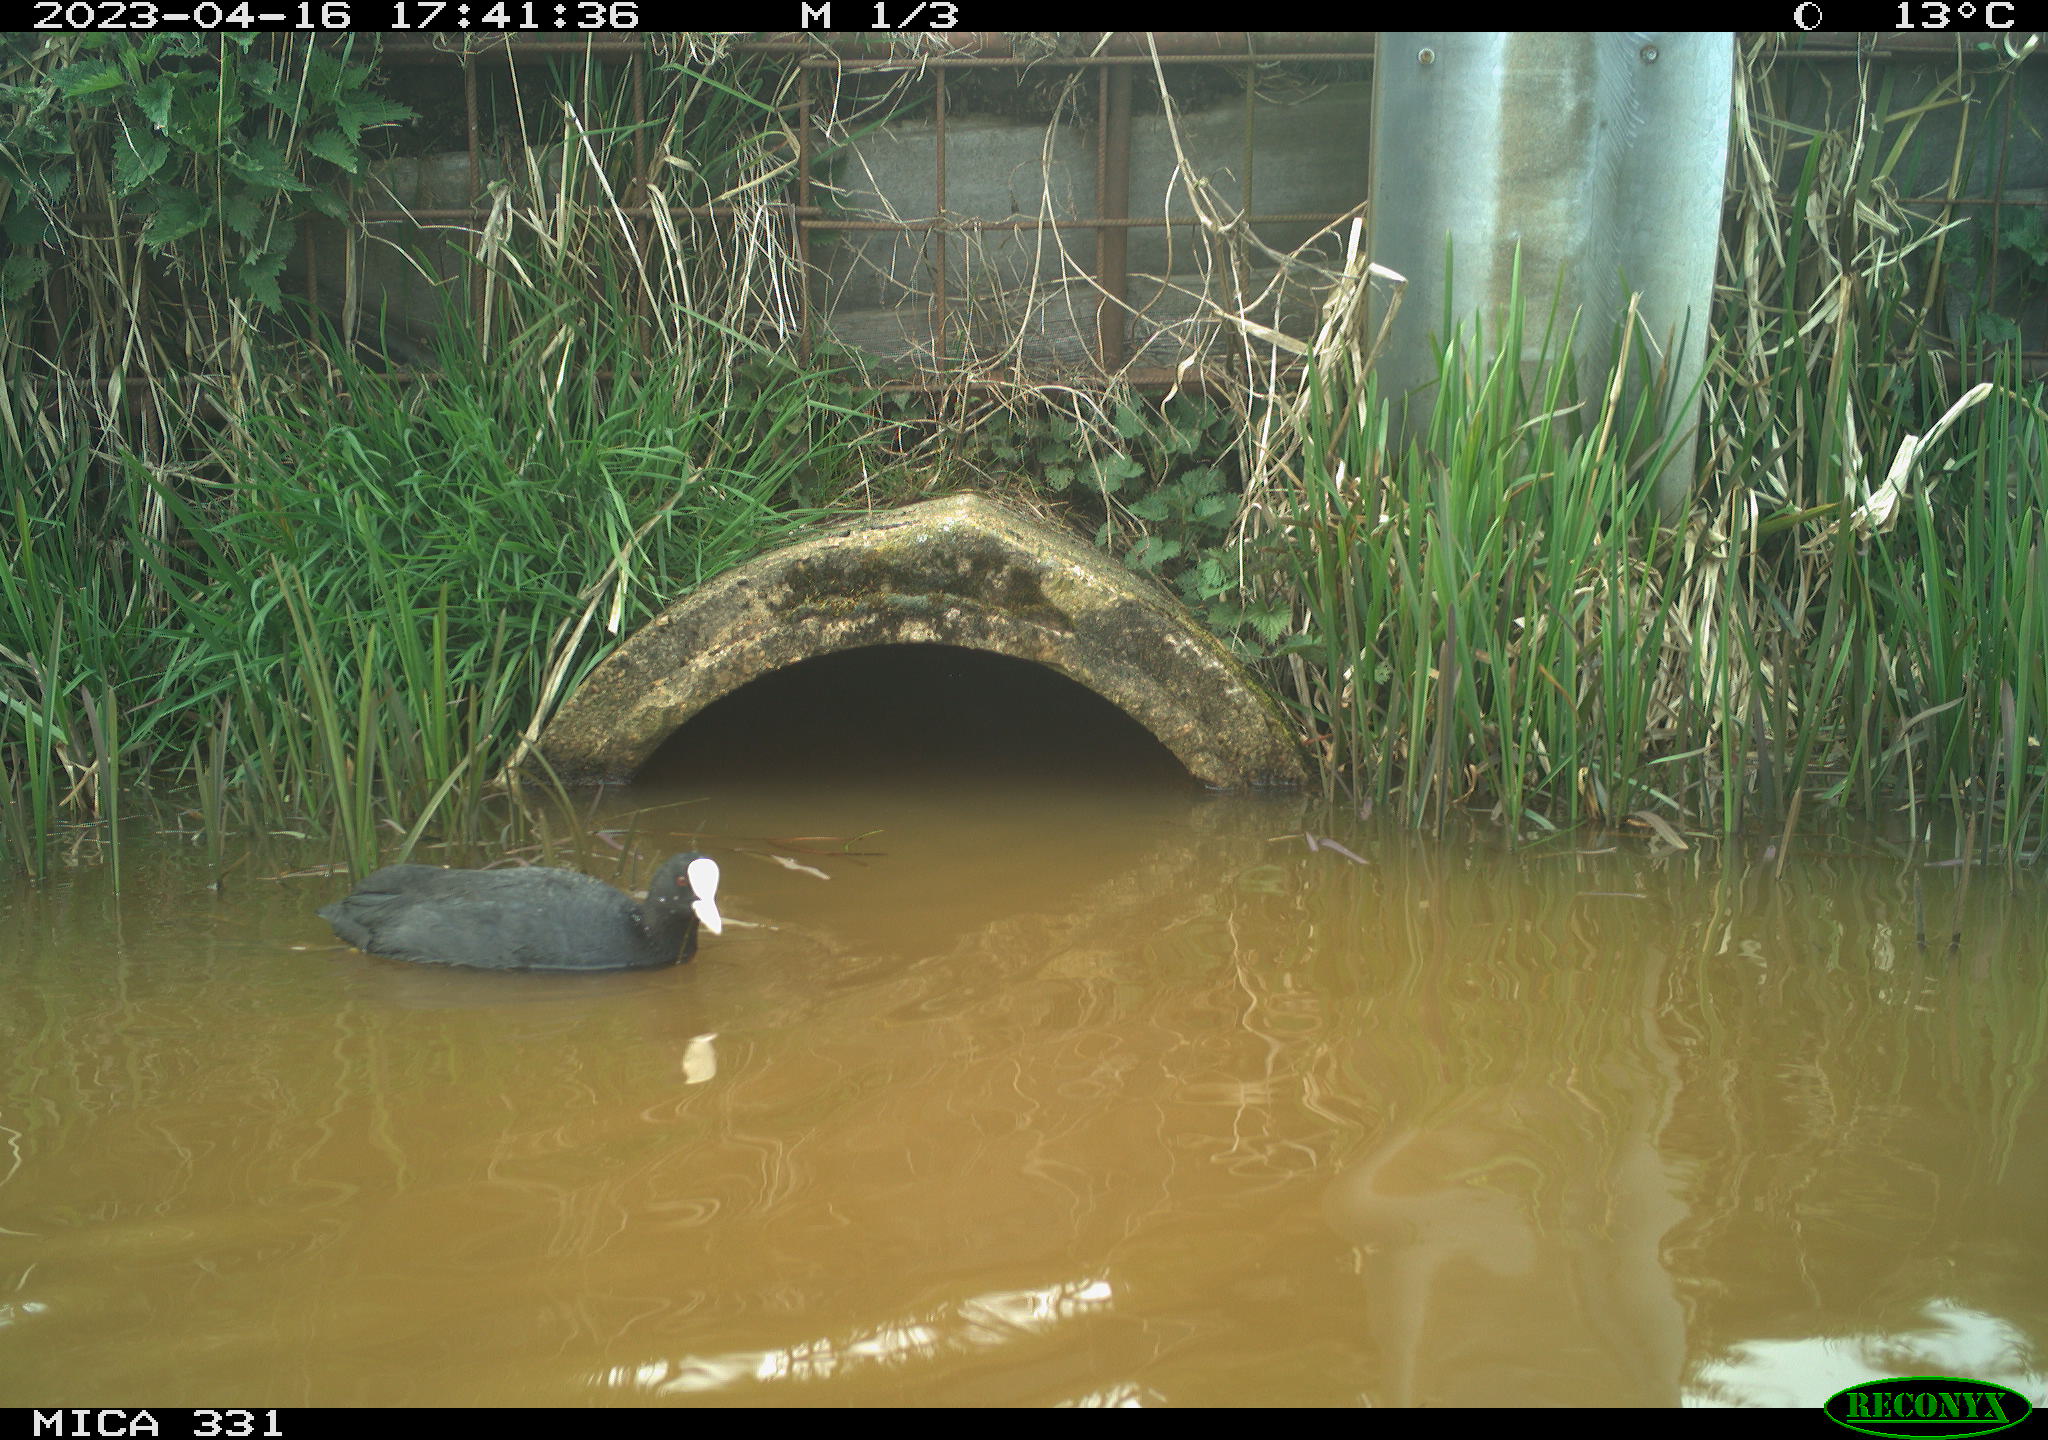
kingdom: Animalia
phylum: Chordata
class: Aves
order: Gruiformes
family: Rallidae
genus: Fulica
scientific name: Fulica atra
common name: Eurasian coot
